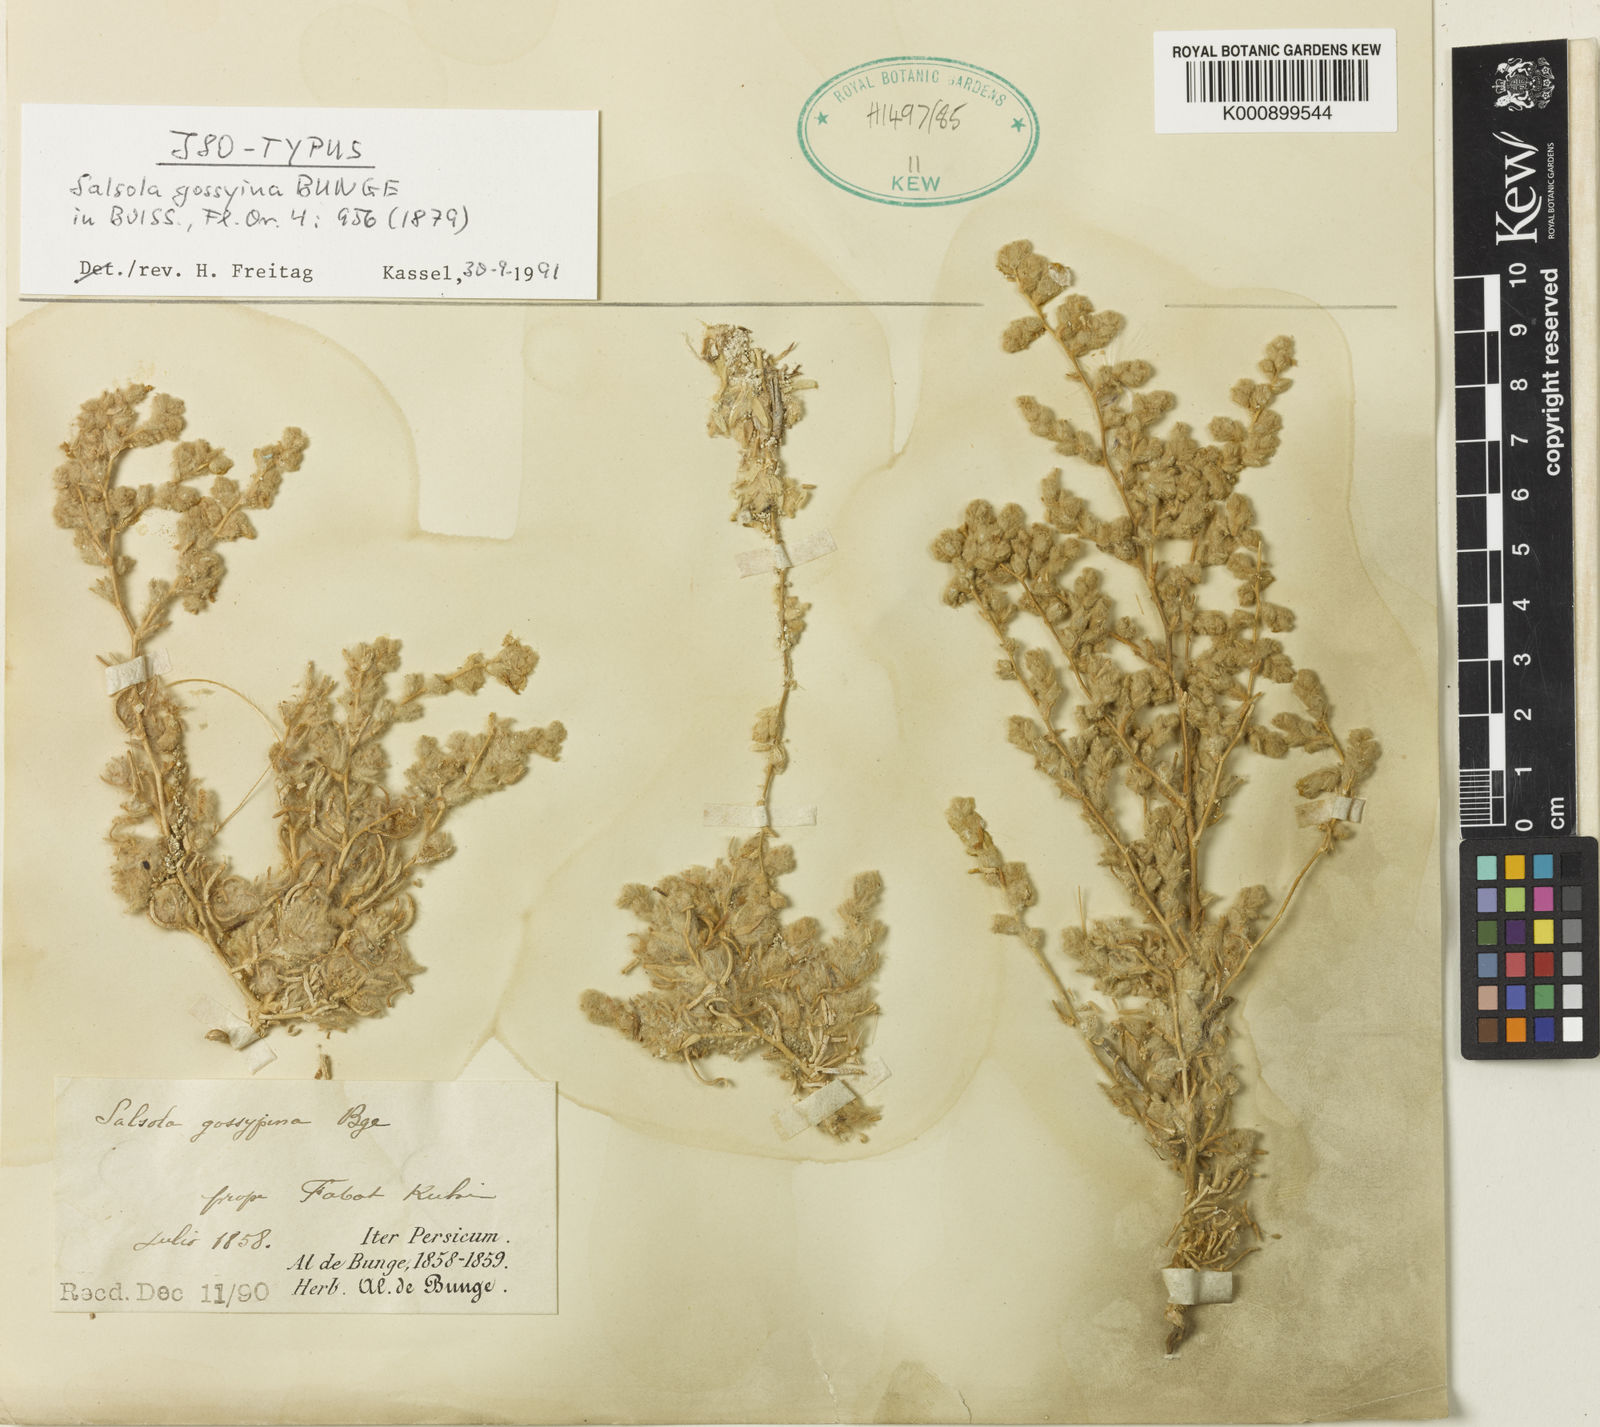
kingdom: Plantae
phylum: Tracheophyta
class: Magnoliopsida
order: Caryophyllales
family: Amaranthaceae
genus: Salsola
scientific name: Salsola
